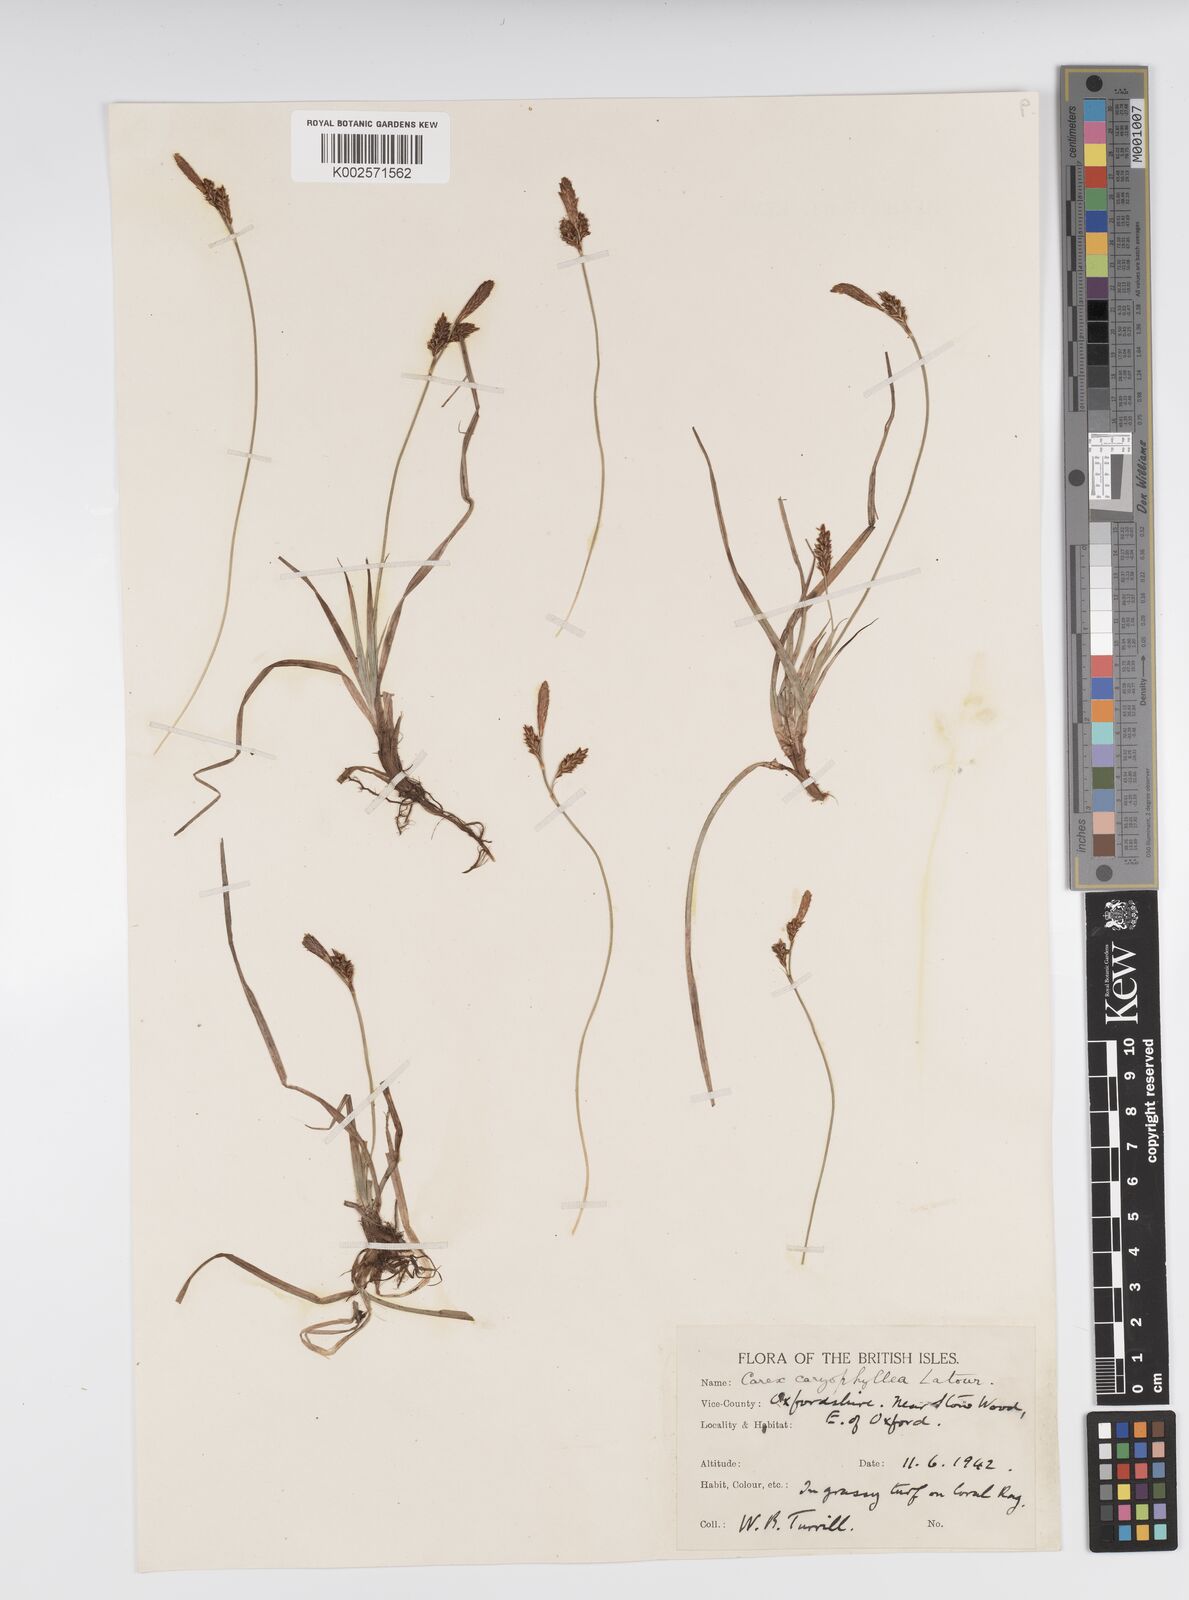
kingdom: Plantae
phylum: Tracheophyta
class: Liliopsida
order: Poales
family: Cyperaceae
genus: Carex
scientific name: Carex caryophyllea
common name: Spring sedge
